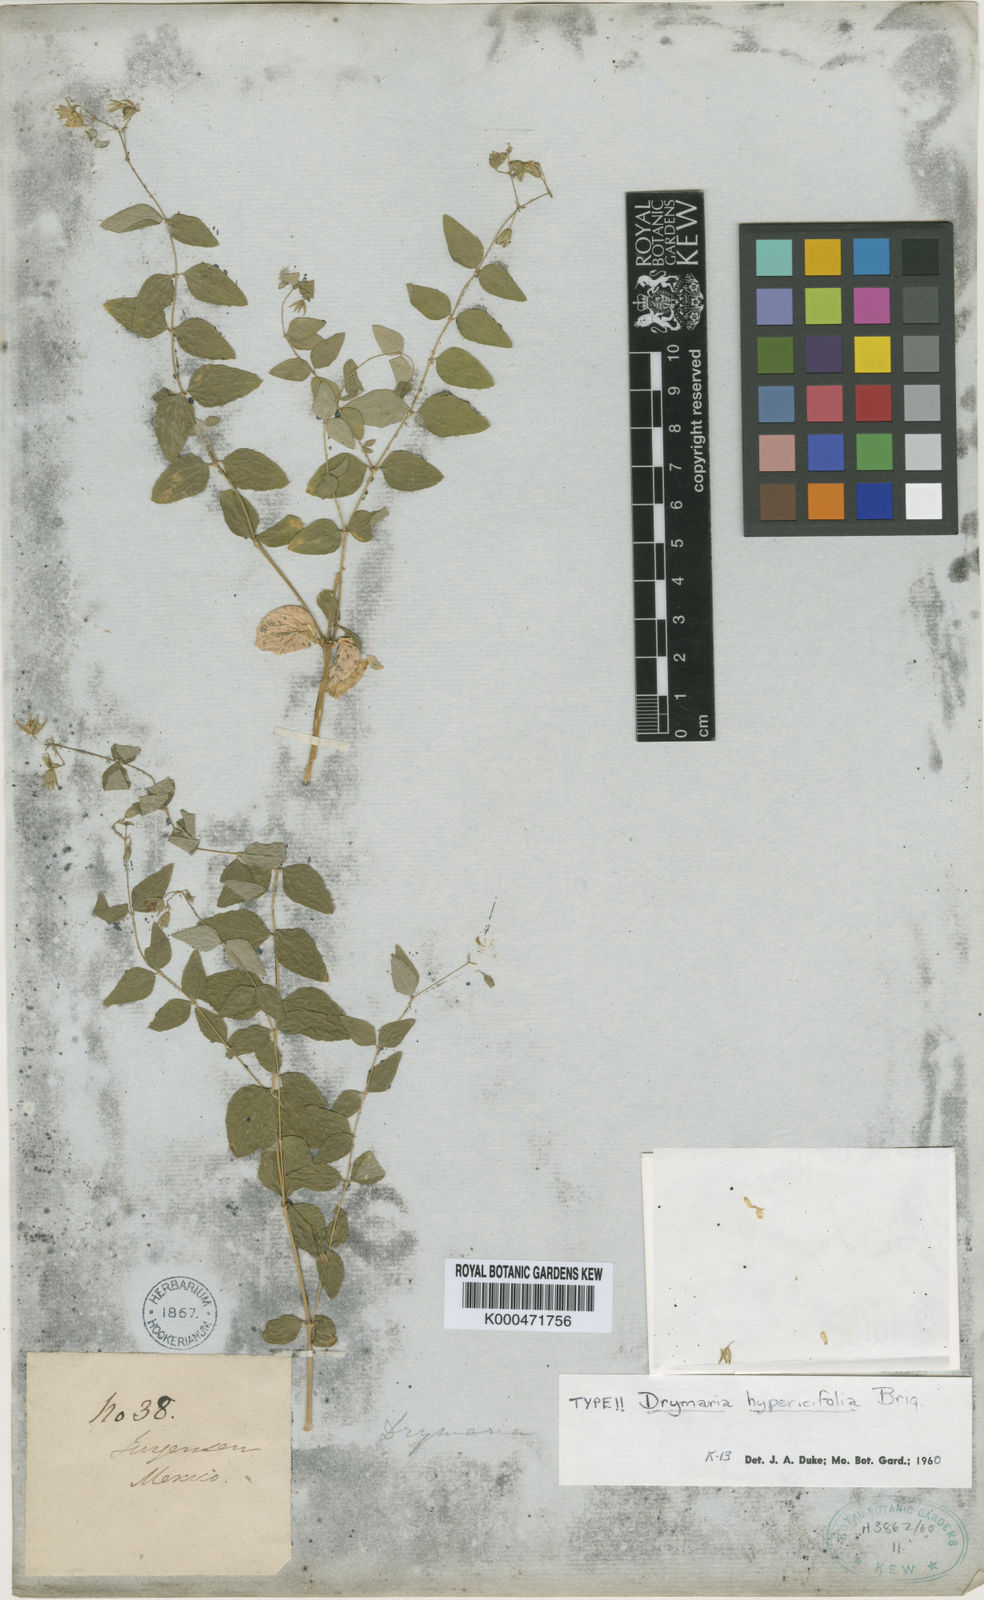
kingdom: Plantae
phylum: Tracheophyta
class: Magnoliopsida
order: Caryophyllales
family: Caryophyllaceae
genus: Drymaria
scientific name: Drymaria hypericifolia
